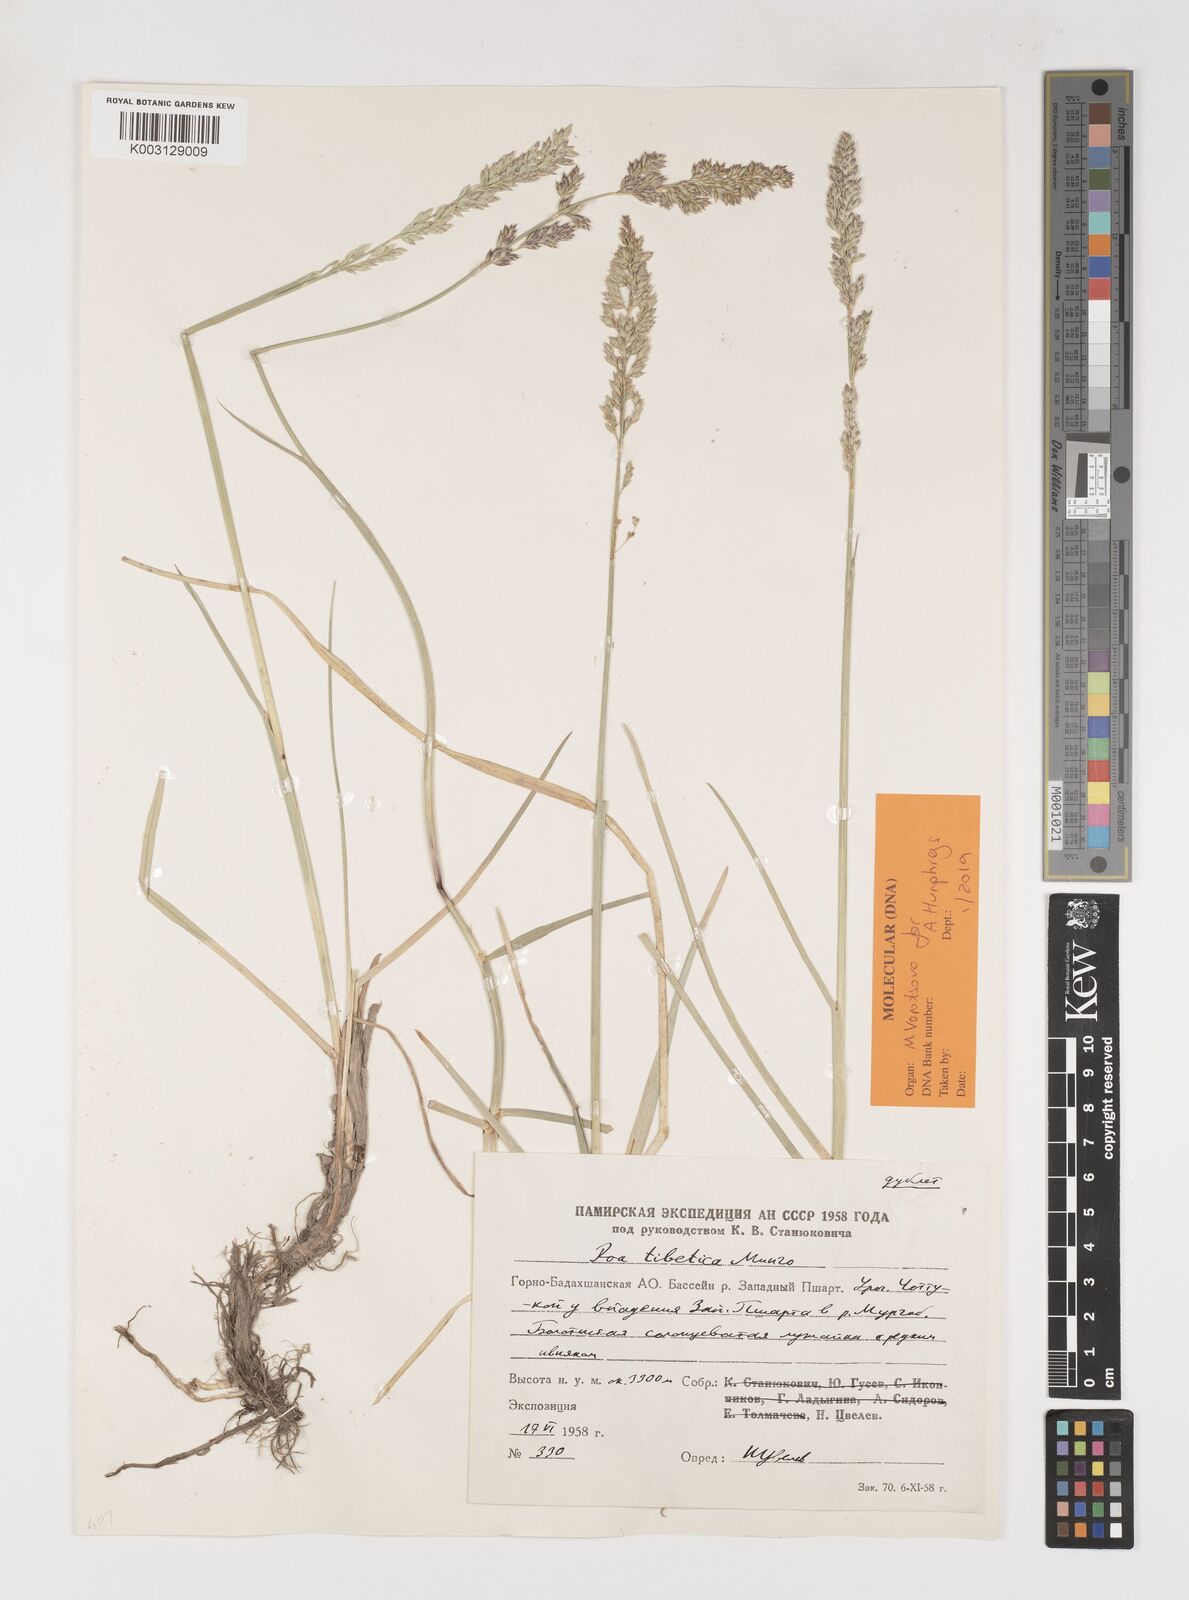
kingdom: Plantae
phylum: Tracheophyta
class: Liliopsida
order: Poales
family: Poaceae
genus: Arctopoa
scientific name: Arctopoa tibetica
